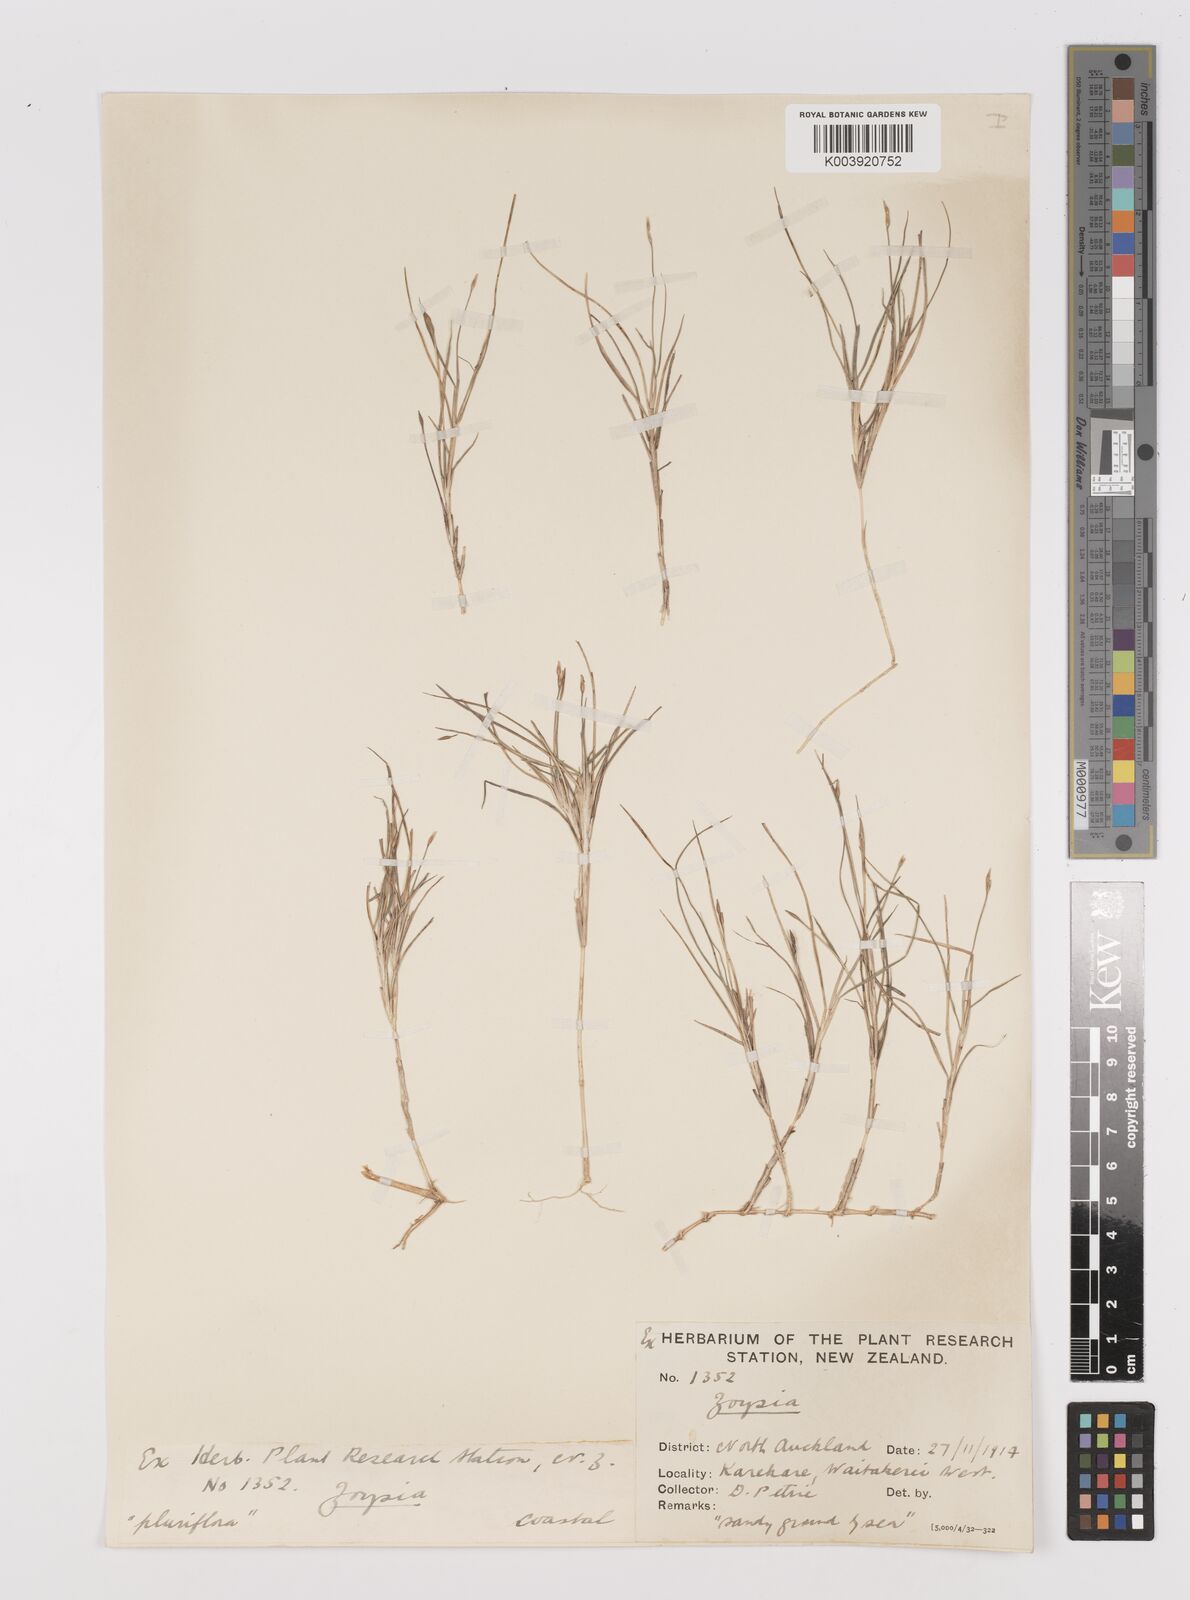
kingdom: Plantae
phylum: Tracheophyta
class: Liliopsida
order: Poales
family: Poaceae
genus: Zoysia
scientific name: Zoysia minima
